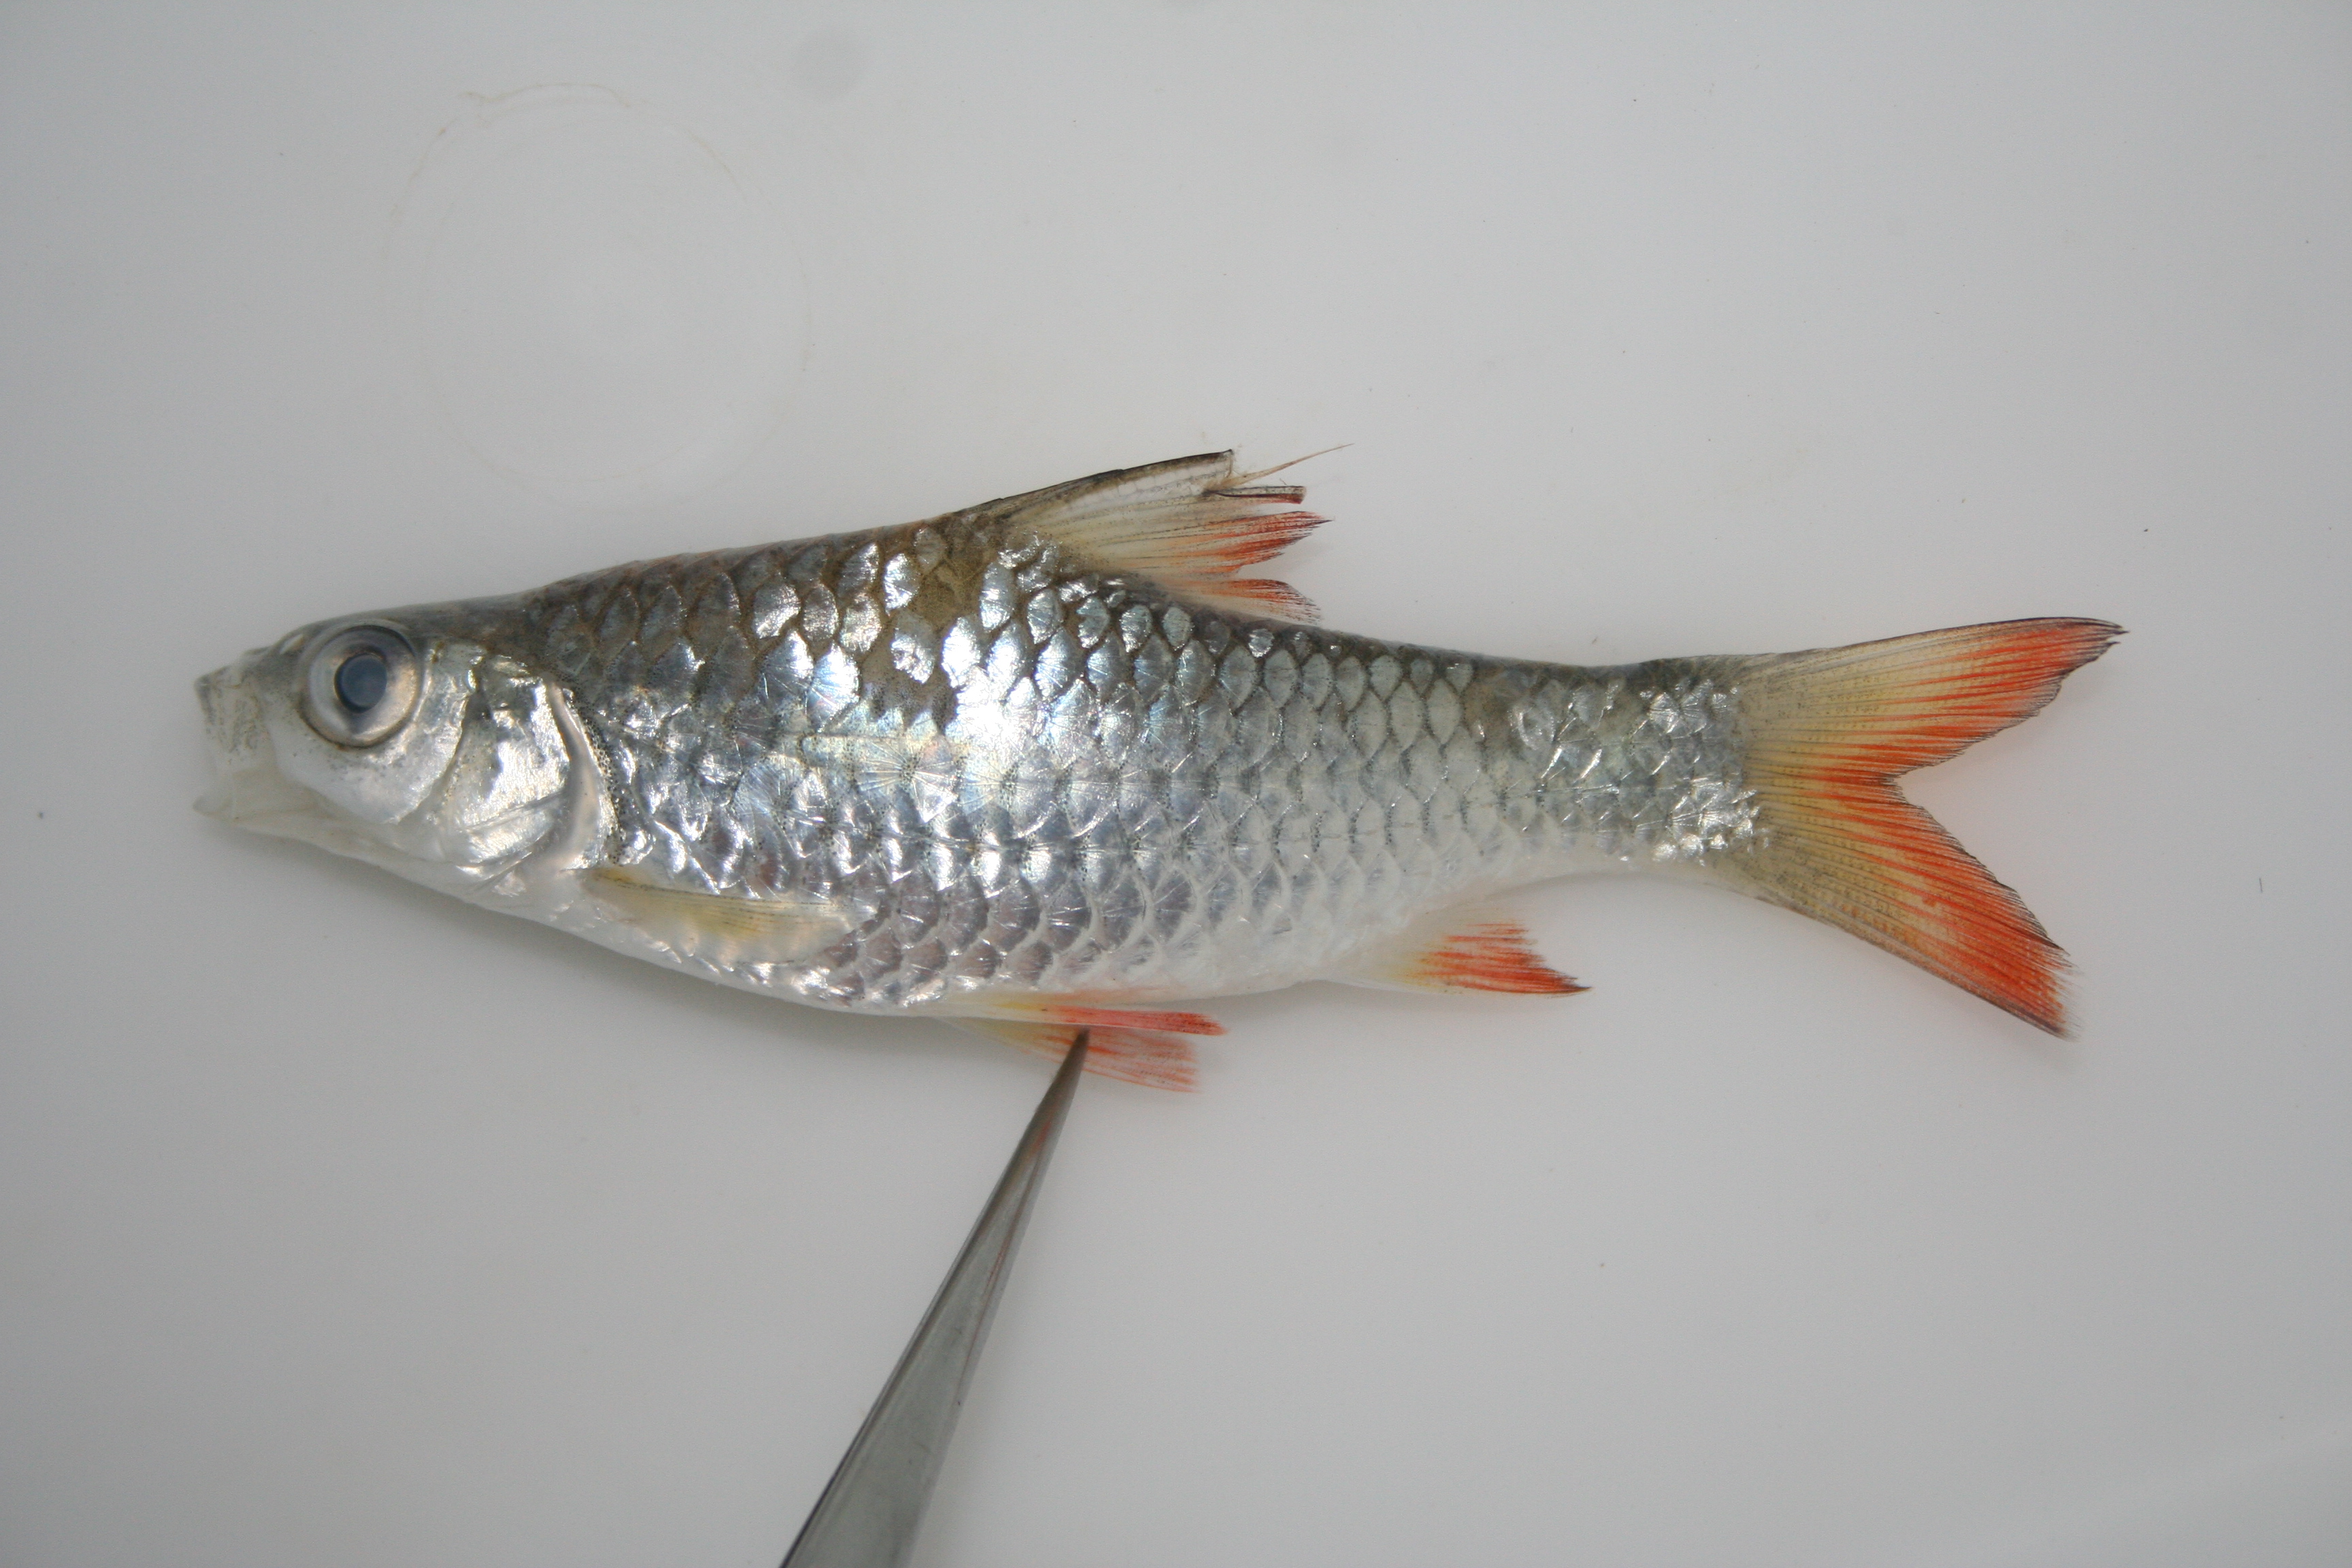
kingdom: Animalia
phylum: Chordata
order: Cypriniformes
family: Cyprinidae
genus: Barbus
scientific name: Barbus
